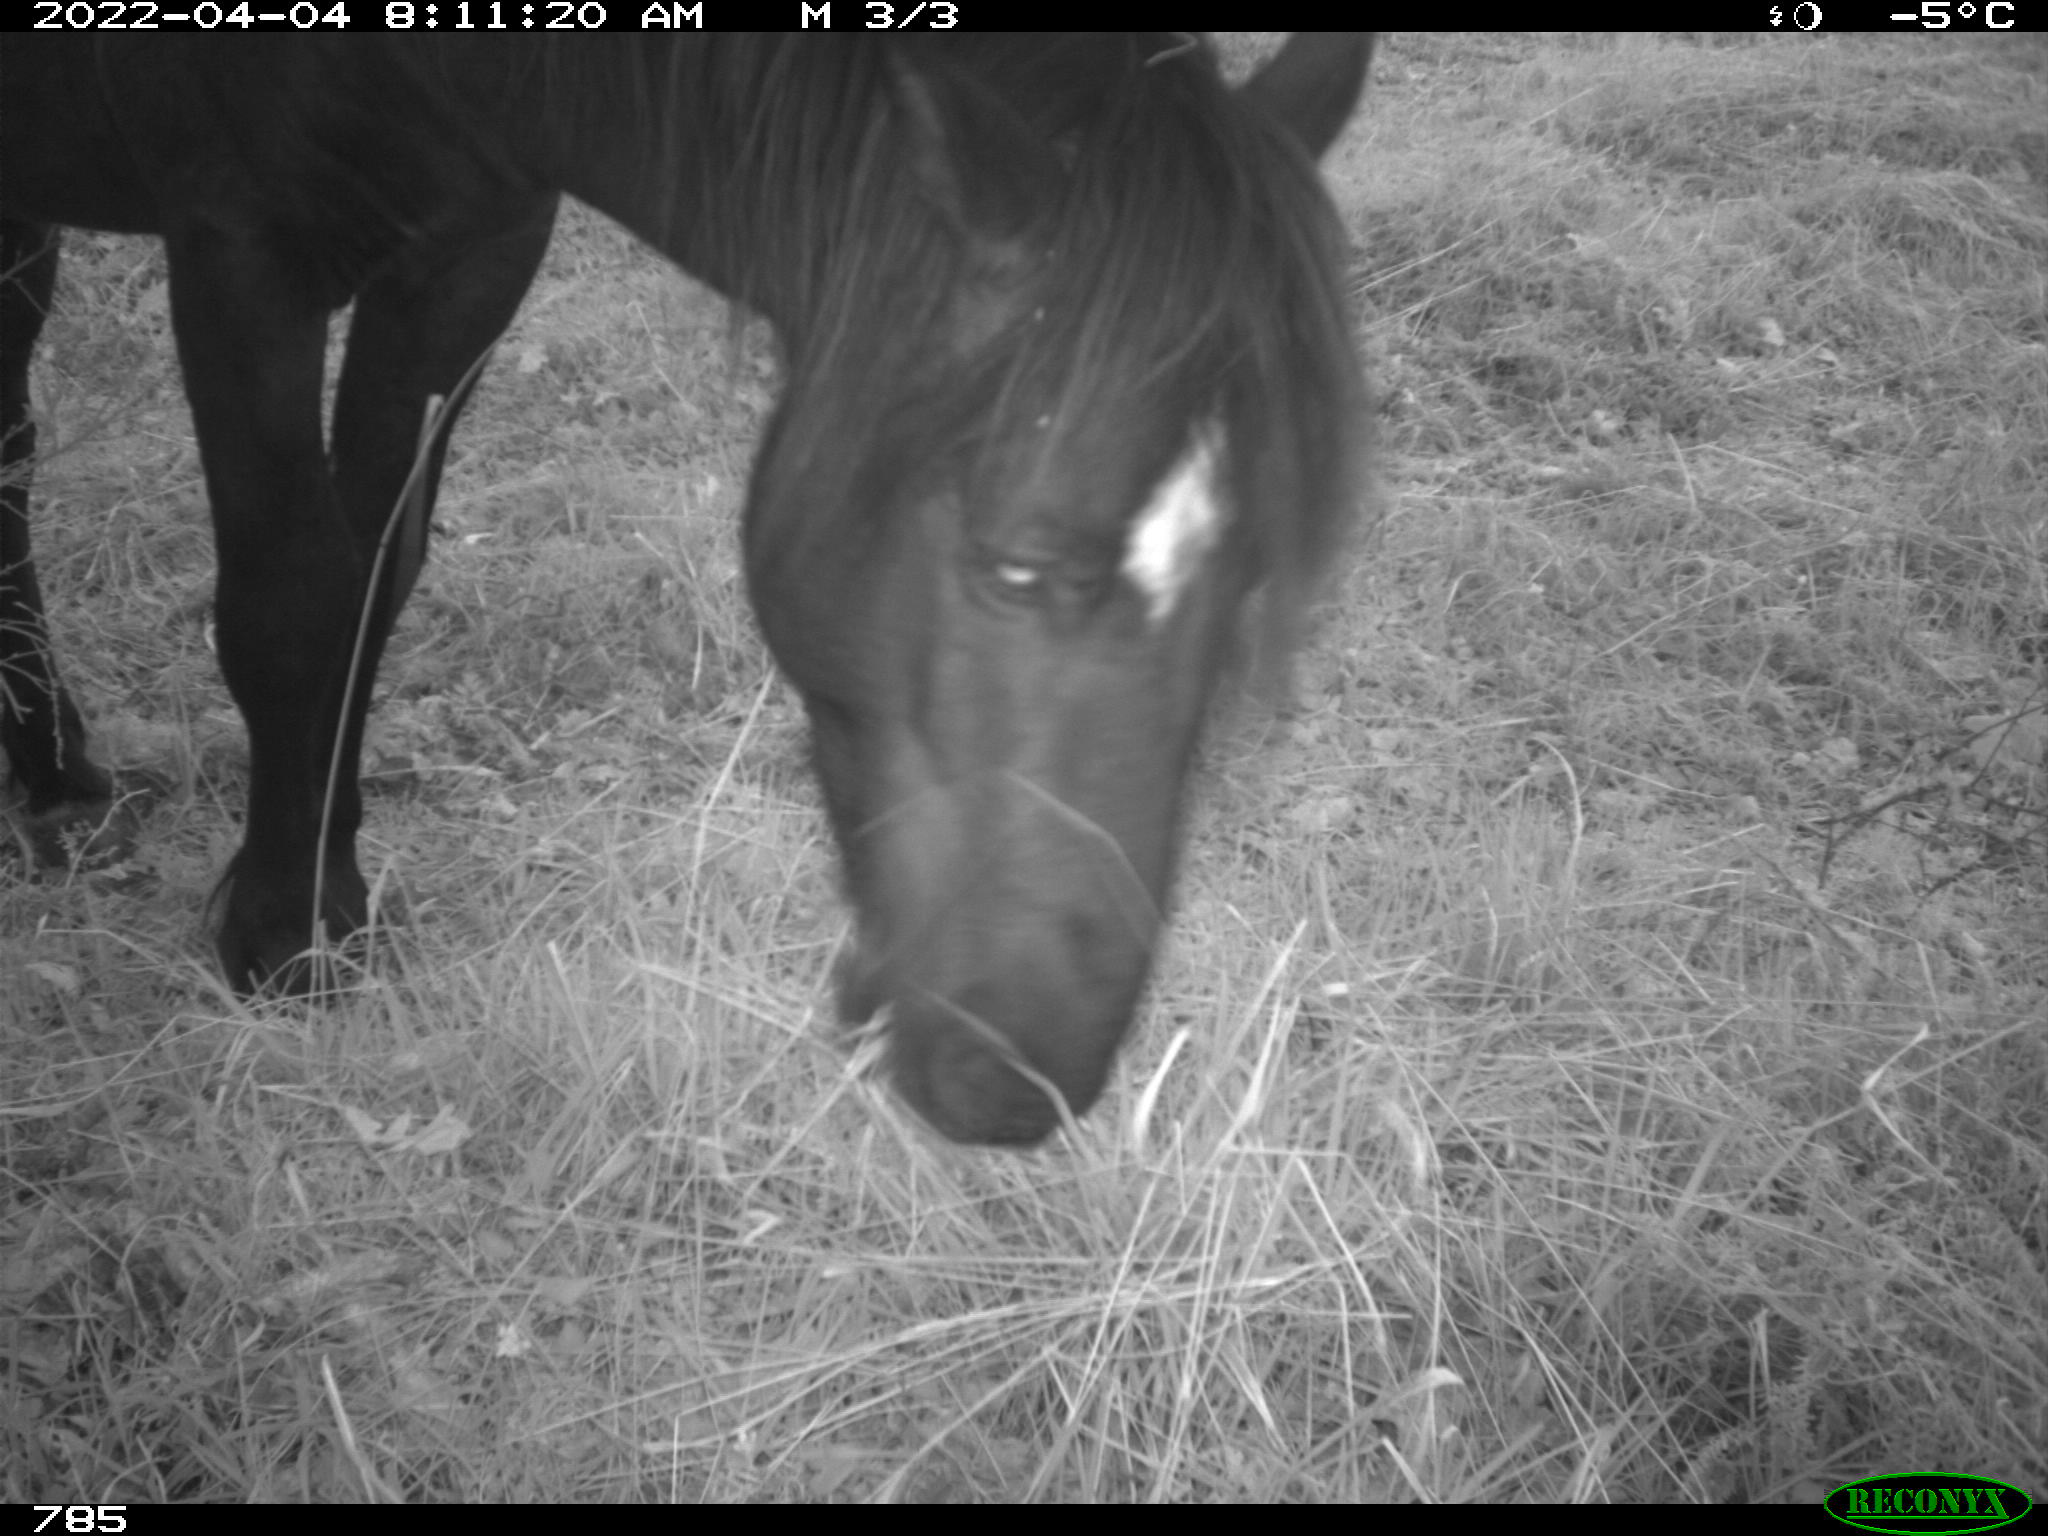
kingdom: Animalia
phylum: Chordata
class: Mammalia
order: Perissodactyla
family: Equidae
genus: Equus
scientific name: Equus caballus
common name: Horse
